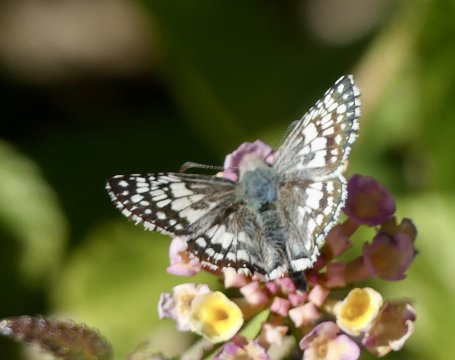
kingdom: Animalia
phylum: Arthropoda
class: Insecta
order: Lepidoptera
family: Hesperiidae
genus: Pyrgus
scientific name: Pyrgus communis
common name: White Checkered-Skipper
